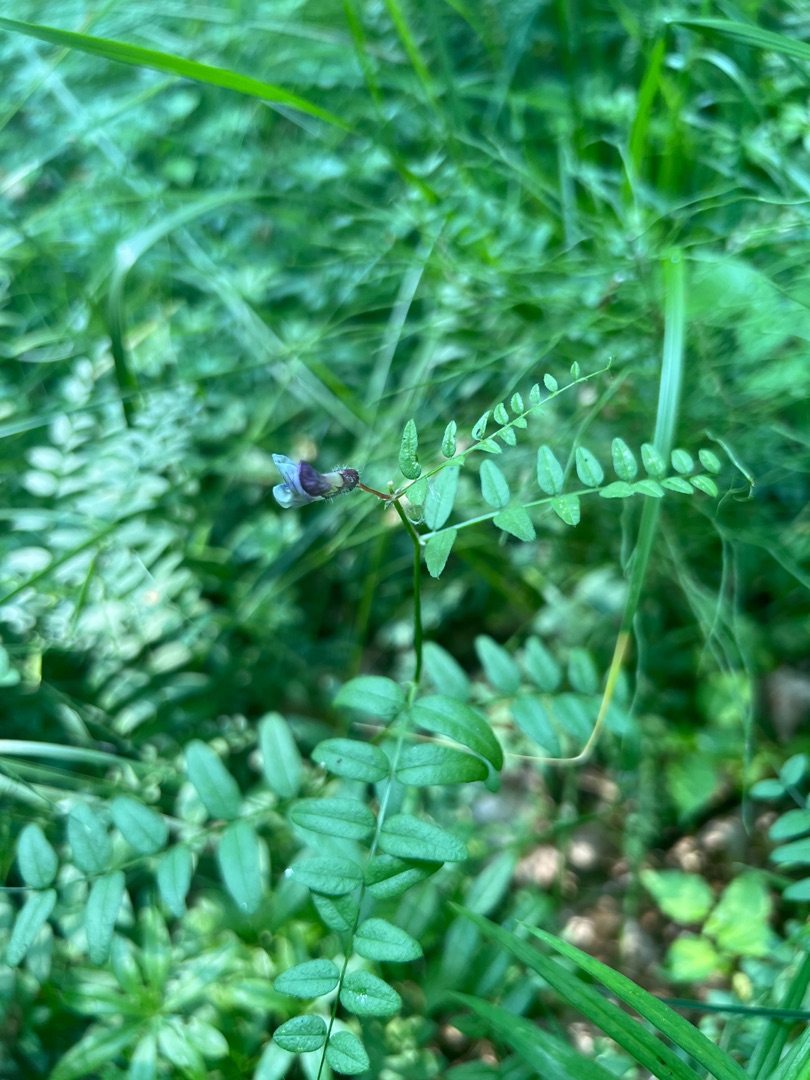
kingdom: Plantae
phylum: Tracheophyta
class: Magnoliopsida
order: Fabales
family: Fabaceae
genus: Vicia
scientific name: Vicia sepium
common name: Gærde-vikke
